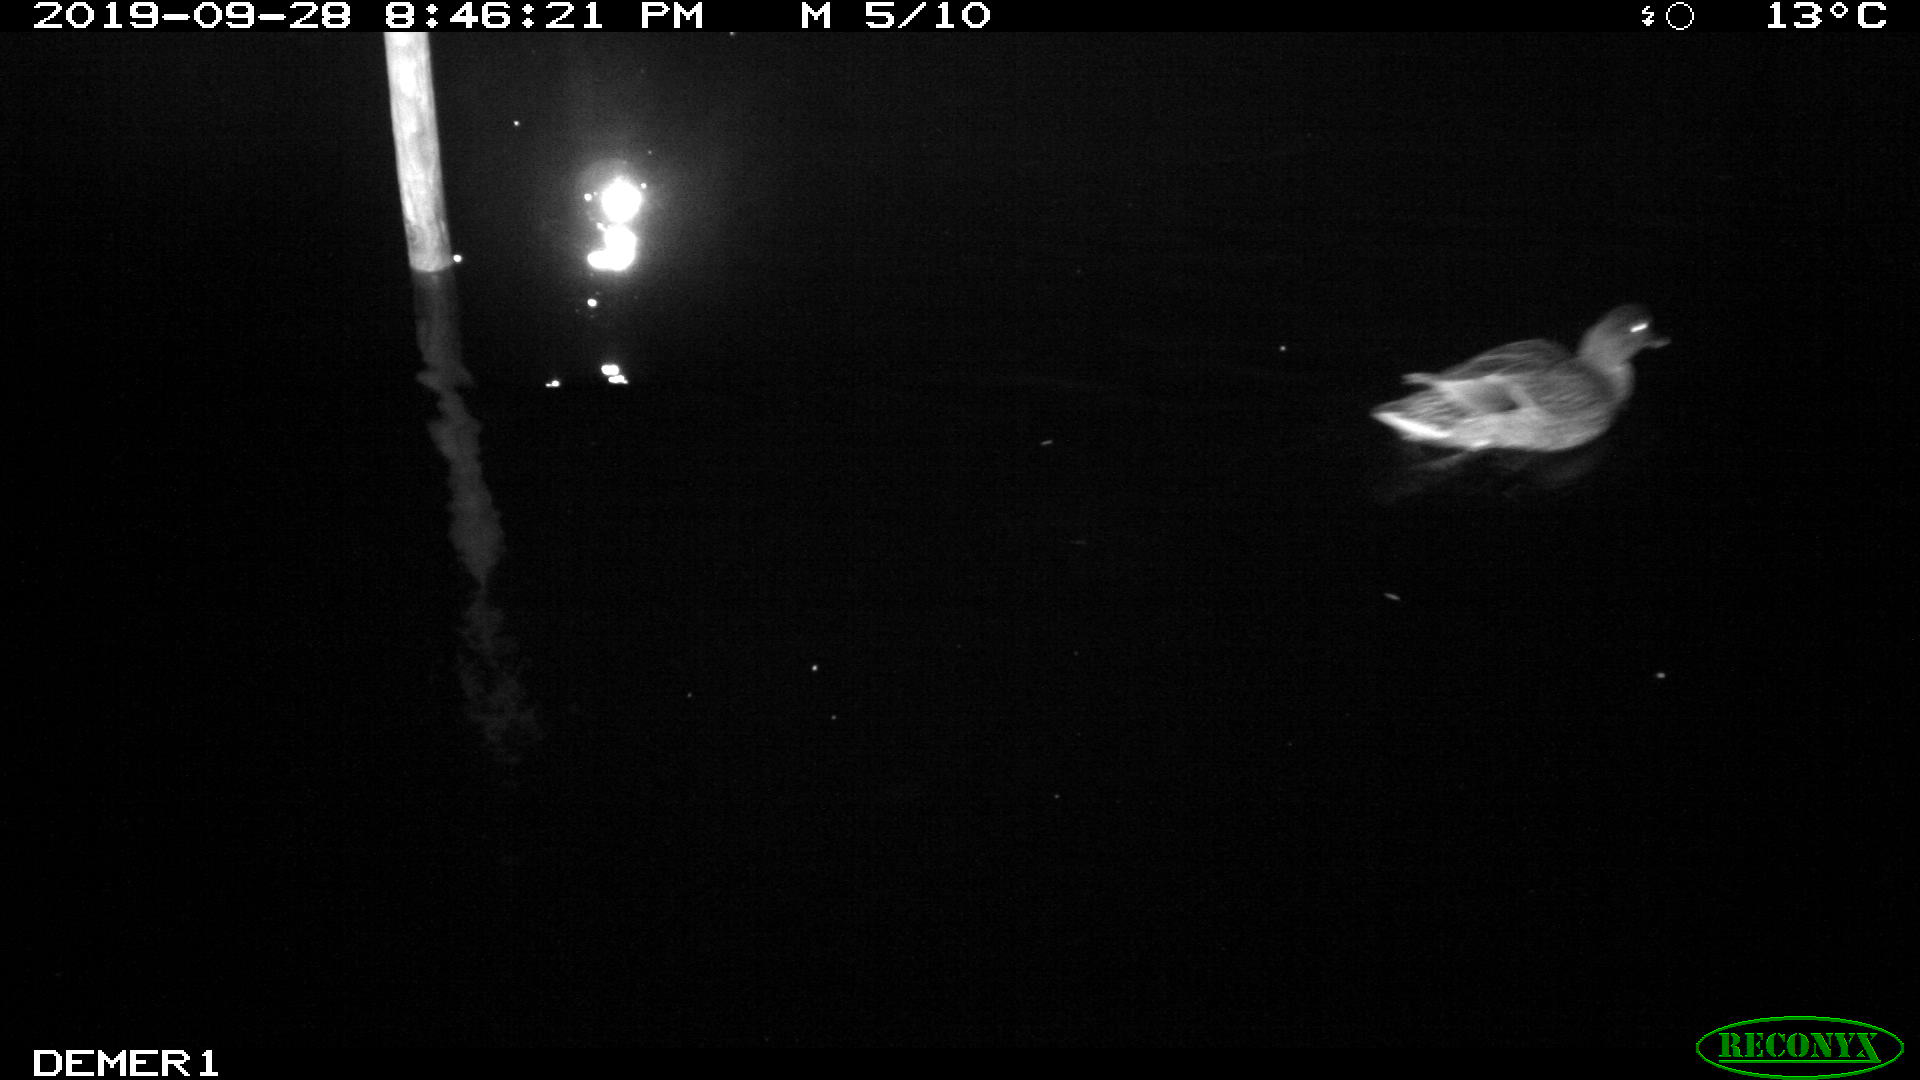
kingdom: Animalia
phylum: Chordata
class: Aves
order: Anseriformes
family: Anatidae
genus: Anas
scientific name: Anas platyrhynchos
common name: Mallard
